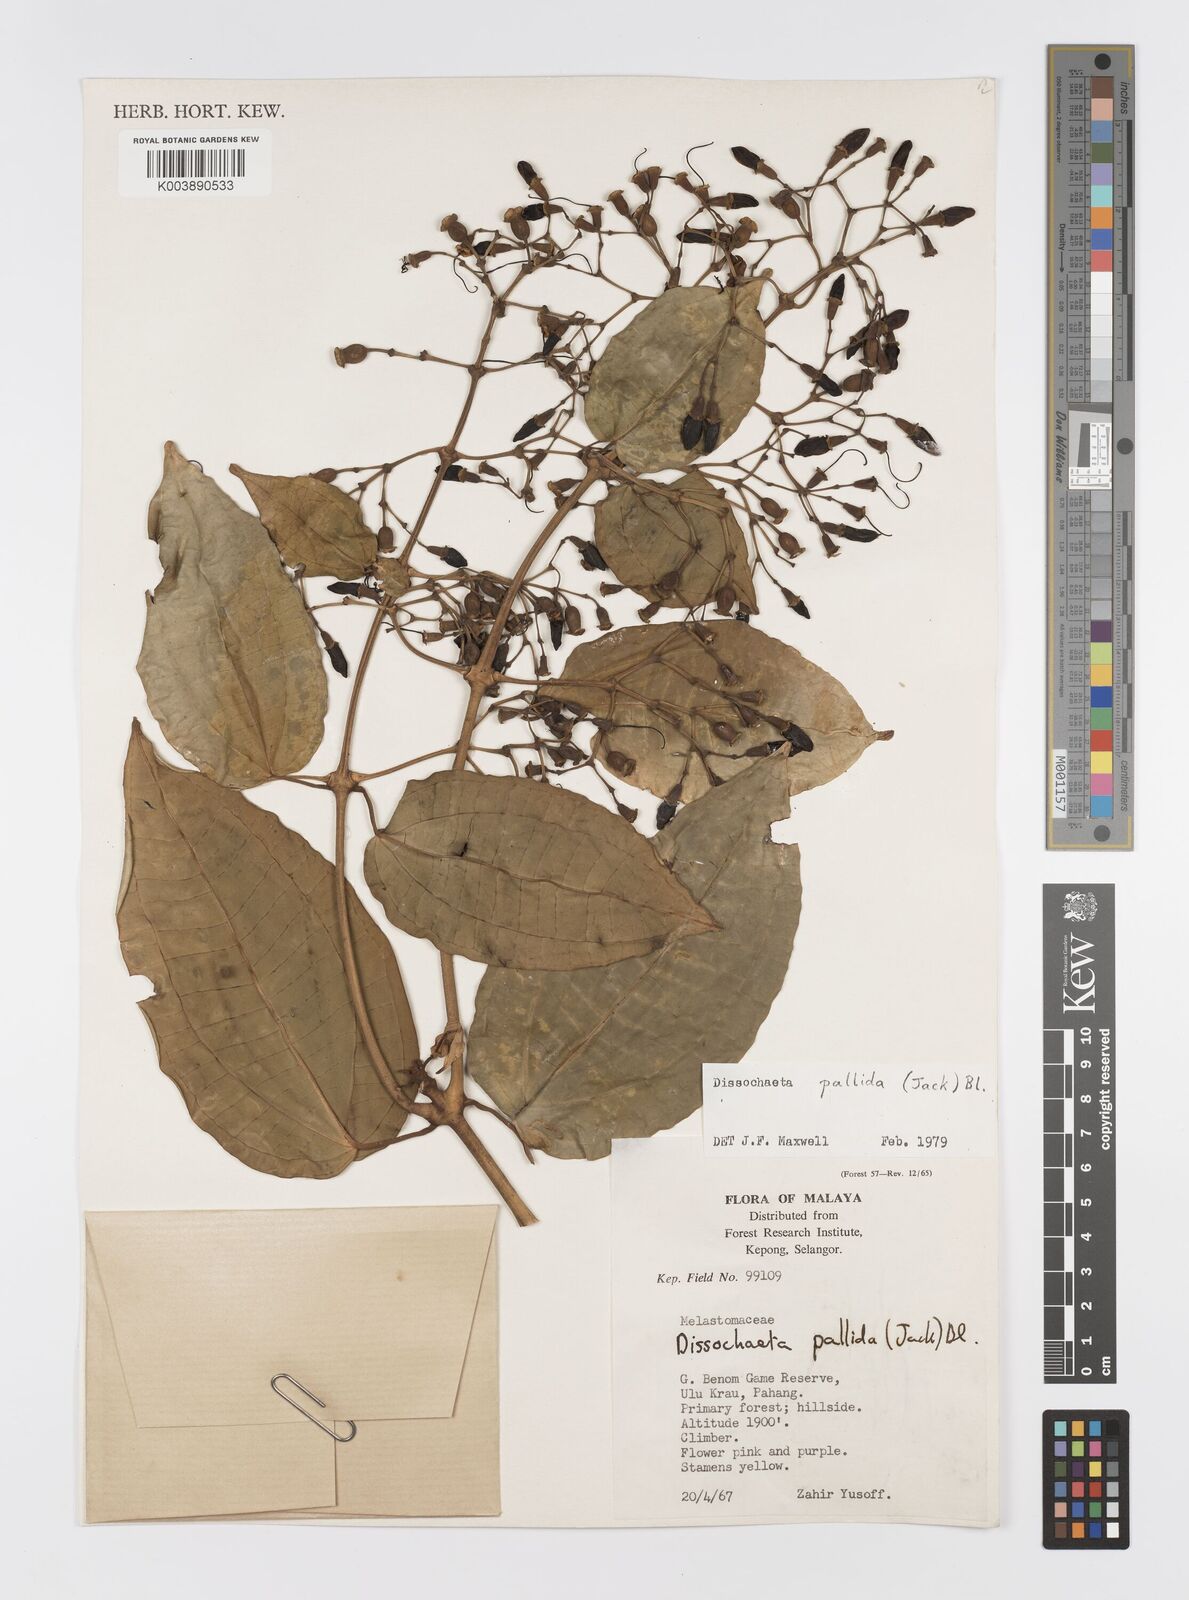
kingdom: Plantae
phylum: Tracheophyta
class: Magnoliopsida
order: Myrtales
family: Melastomataceae
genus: Dissochaeta
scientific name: Dissochaeta pallida
